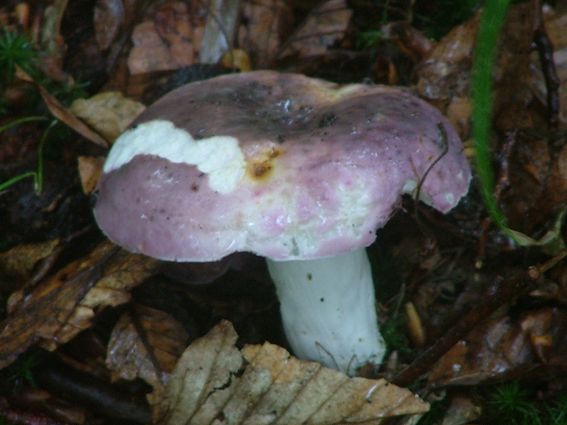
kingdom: Fungi
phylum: Basidiomycota
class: Agaricomycetes
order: Russulales
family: Russulaceae
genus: Russula
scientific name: Russula cyanoxantha
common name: broget skørhat
